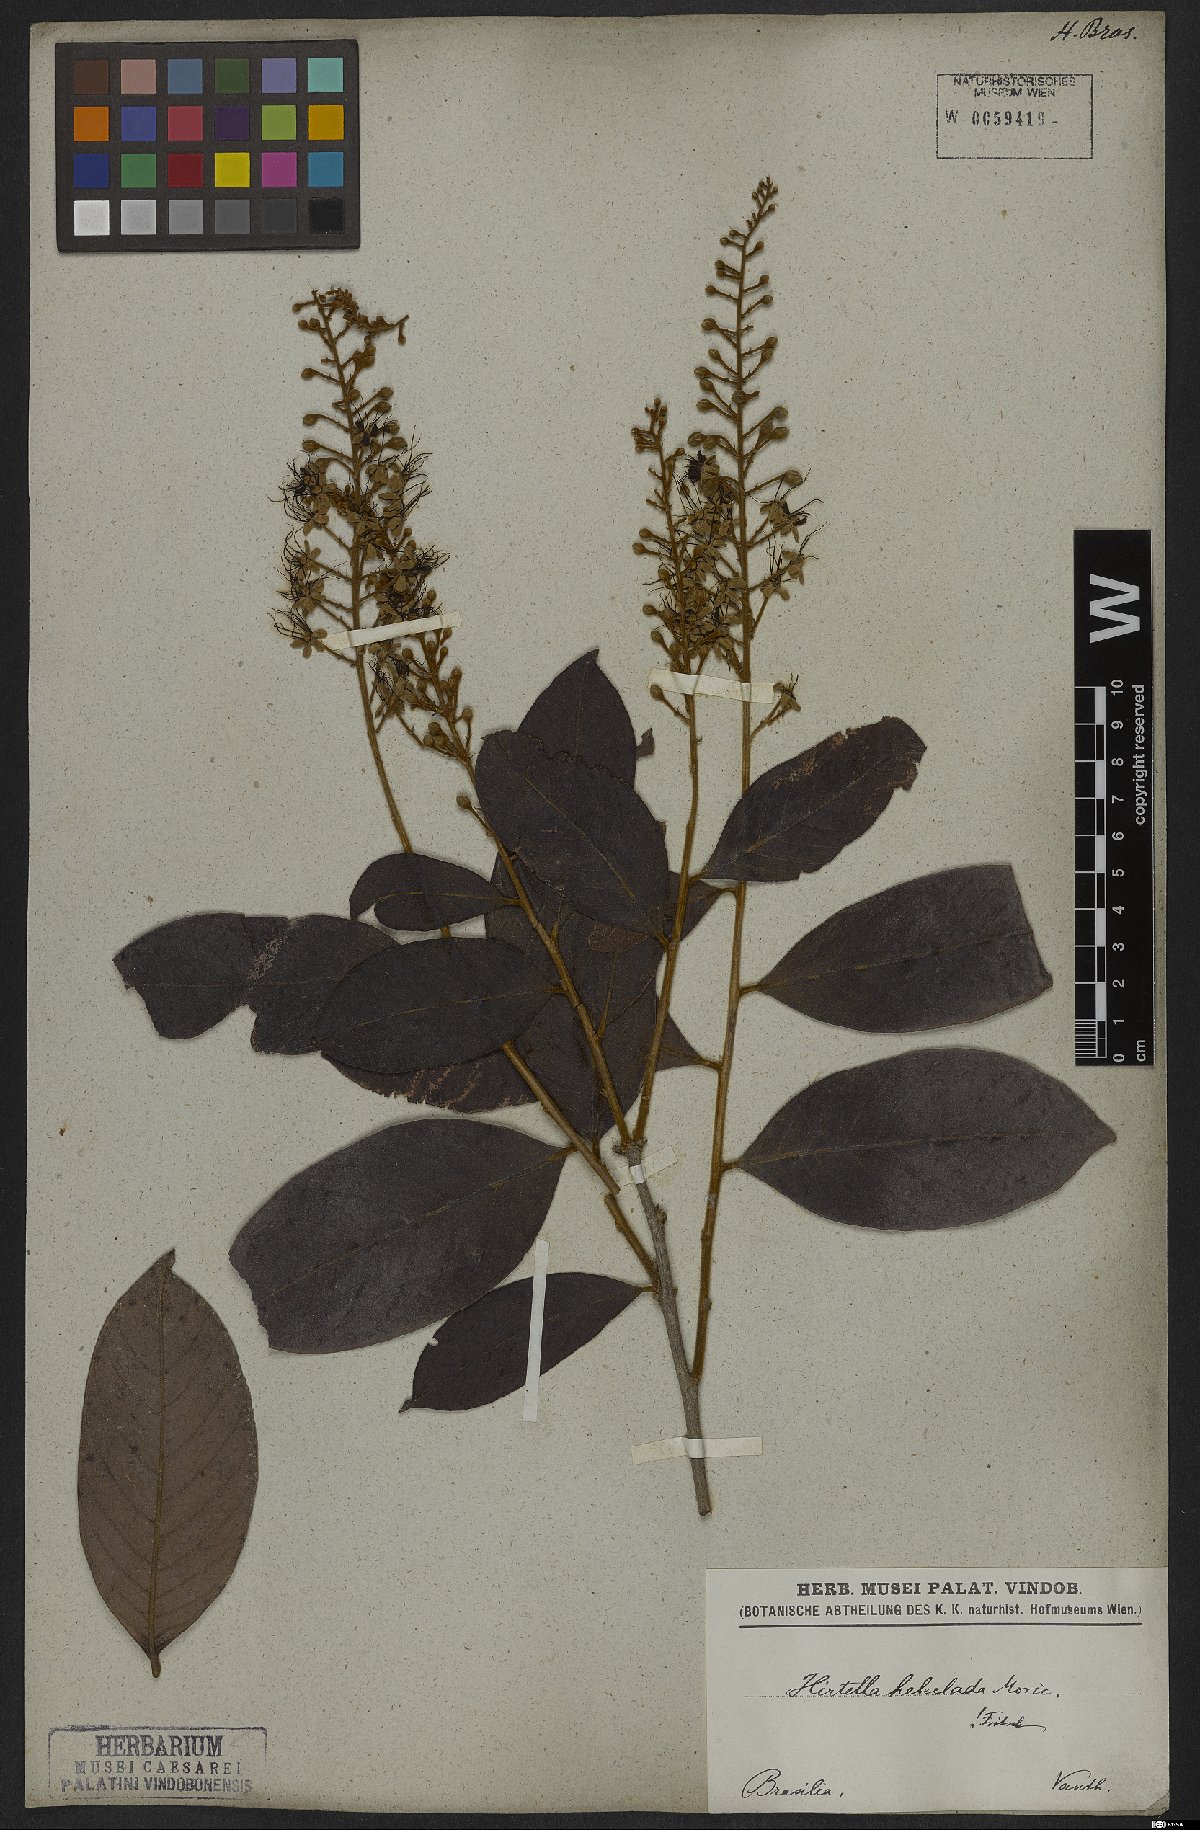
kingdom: Plantae
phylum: Tracheophyta
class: Magnoliopsida
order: Malpighiales
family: Chrysobalanaceae
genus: Hirtella
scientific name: Hirtella hebeclada
